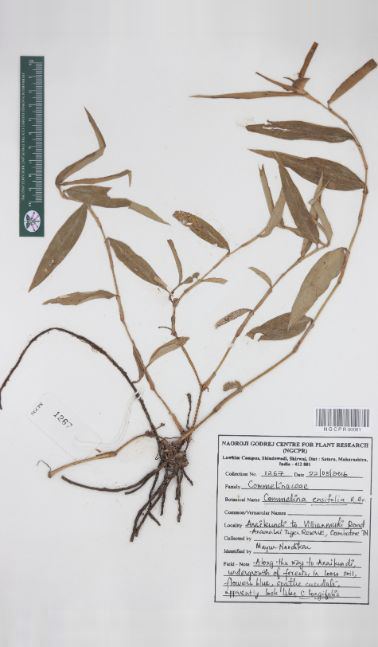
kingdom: Plantae
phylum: Tracheophyta
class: Liliopsida
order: Commelinales
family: Commelinaceae
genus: Commelina
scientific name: Commelina ensifolia
